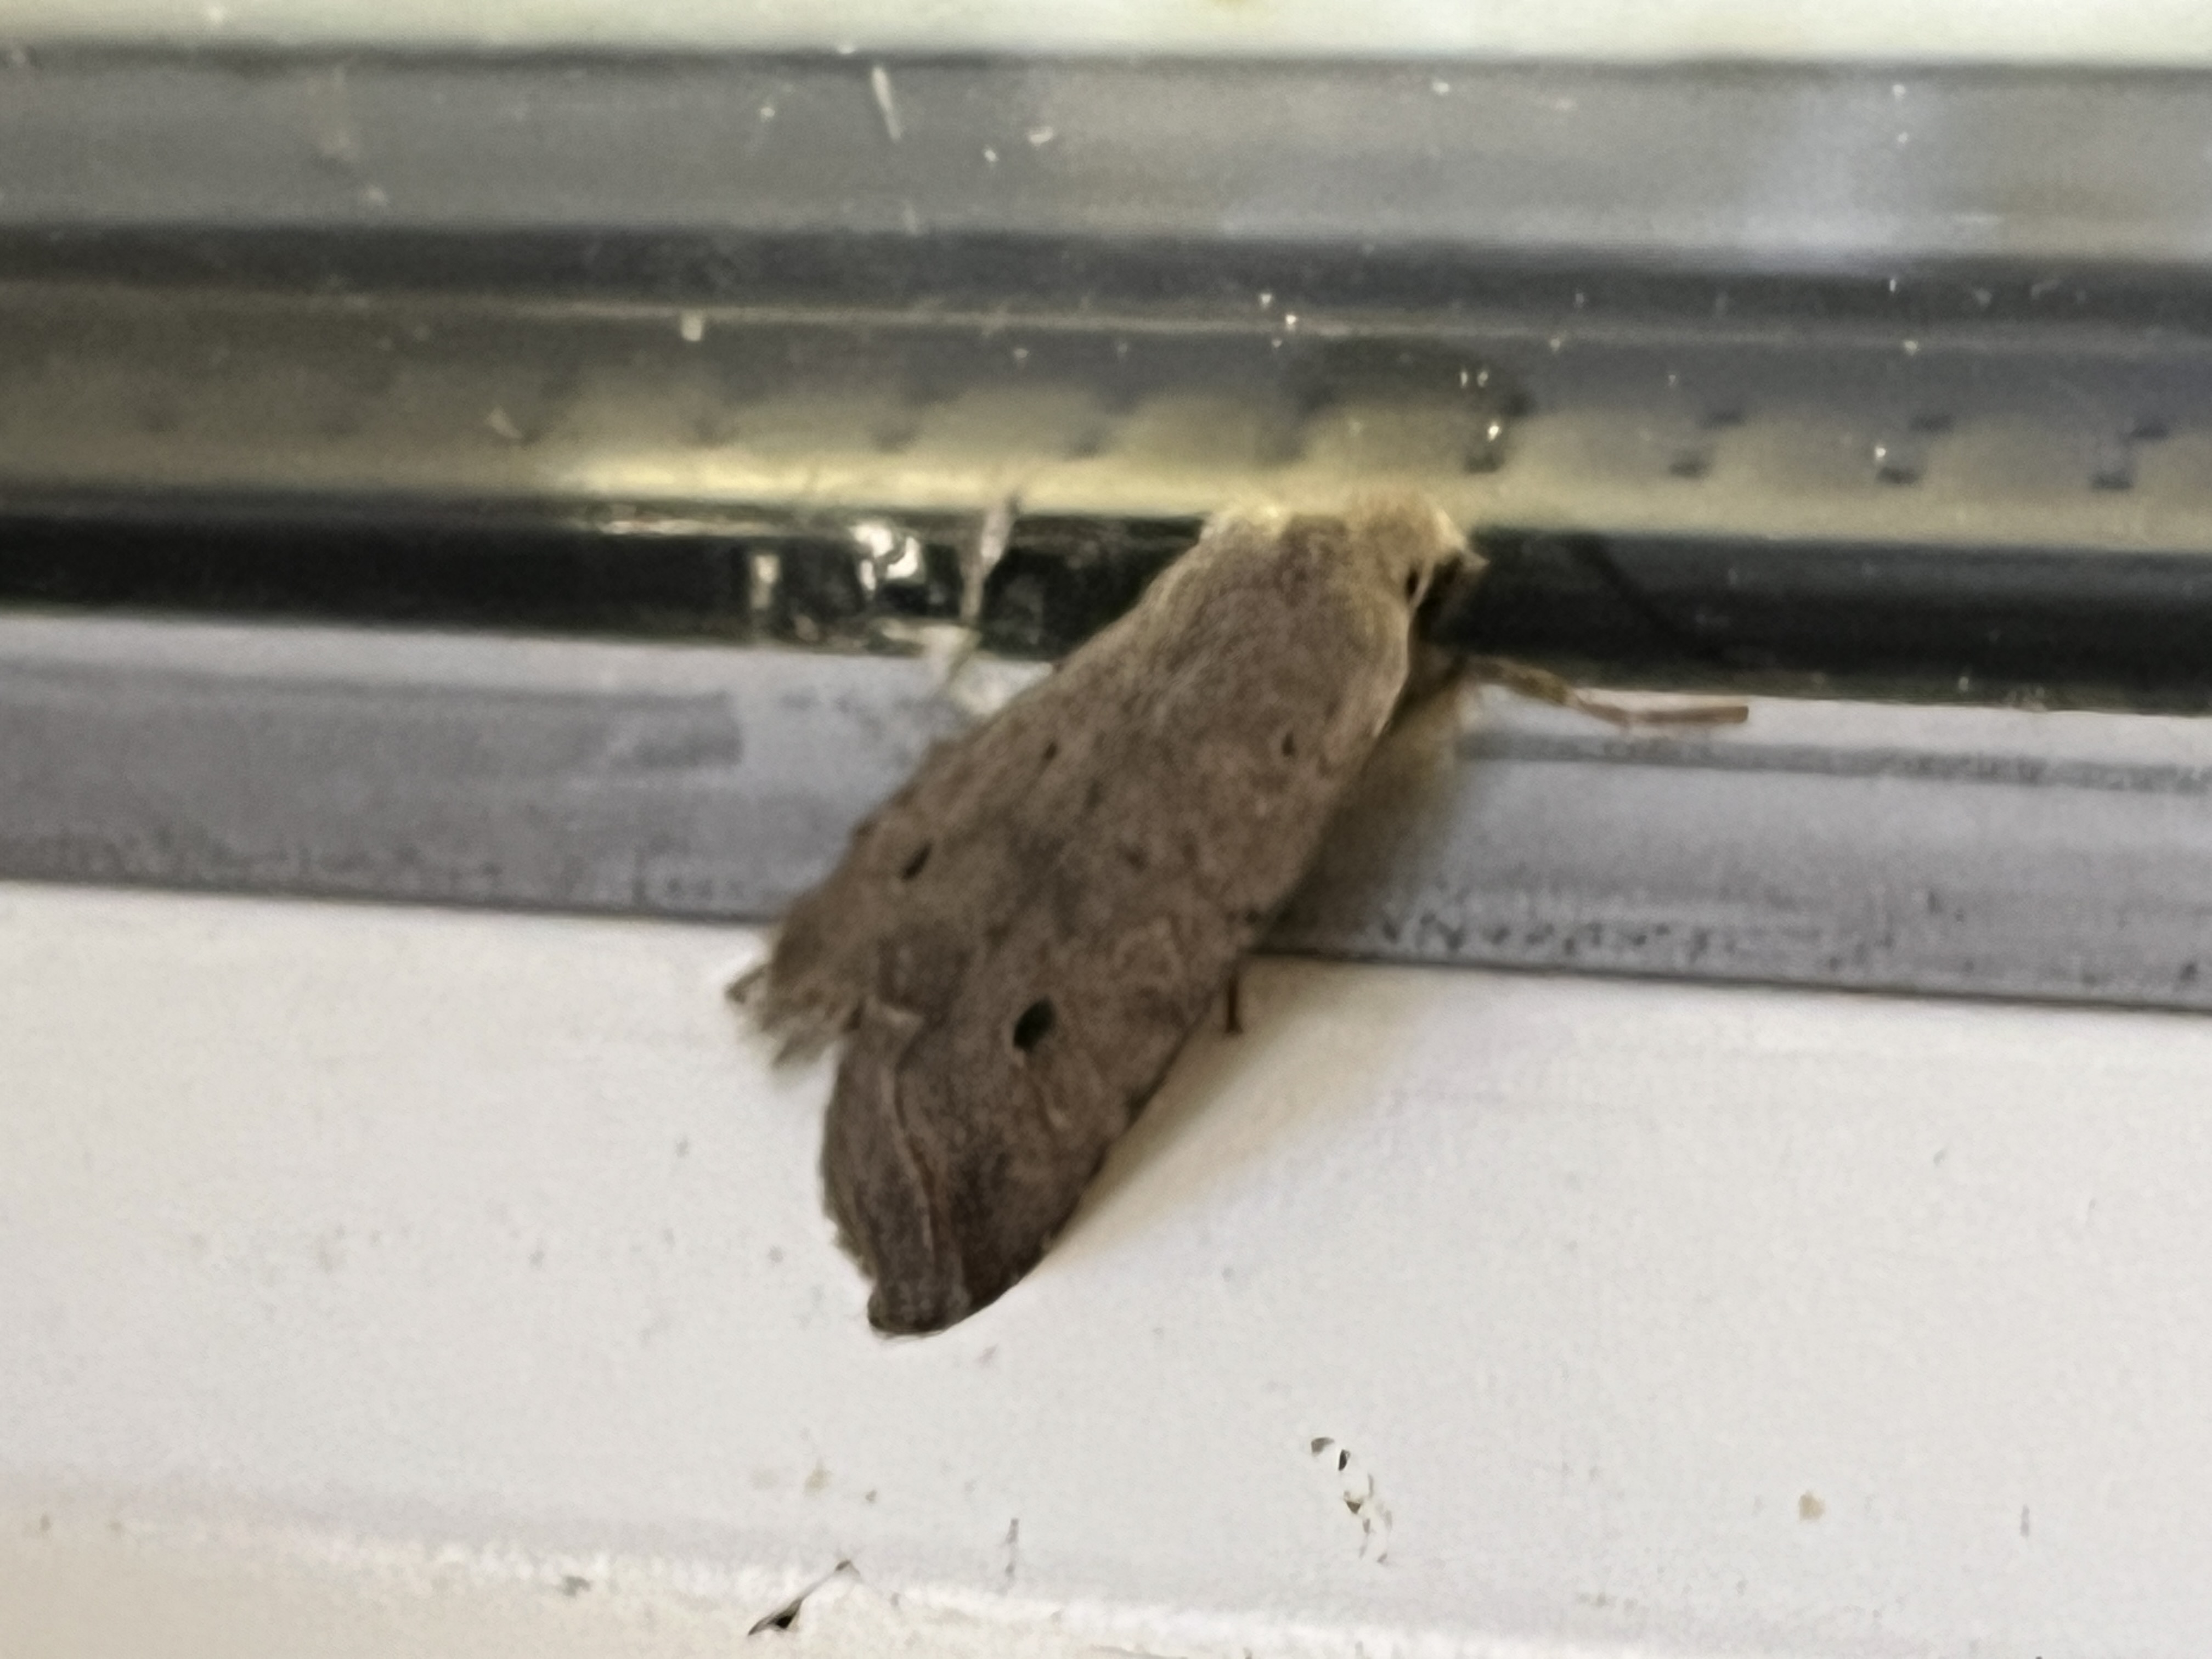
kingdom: Animalia
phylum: Arthropoda
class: Insecta
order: Lepidoptera
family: Noctuidae
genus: Agrochola
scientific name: Agrochola Leptologia lota
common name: Pile-jordfarveugle
